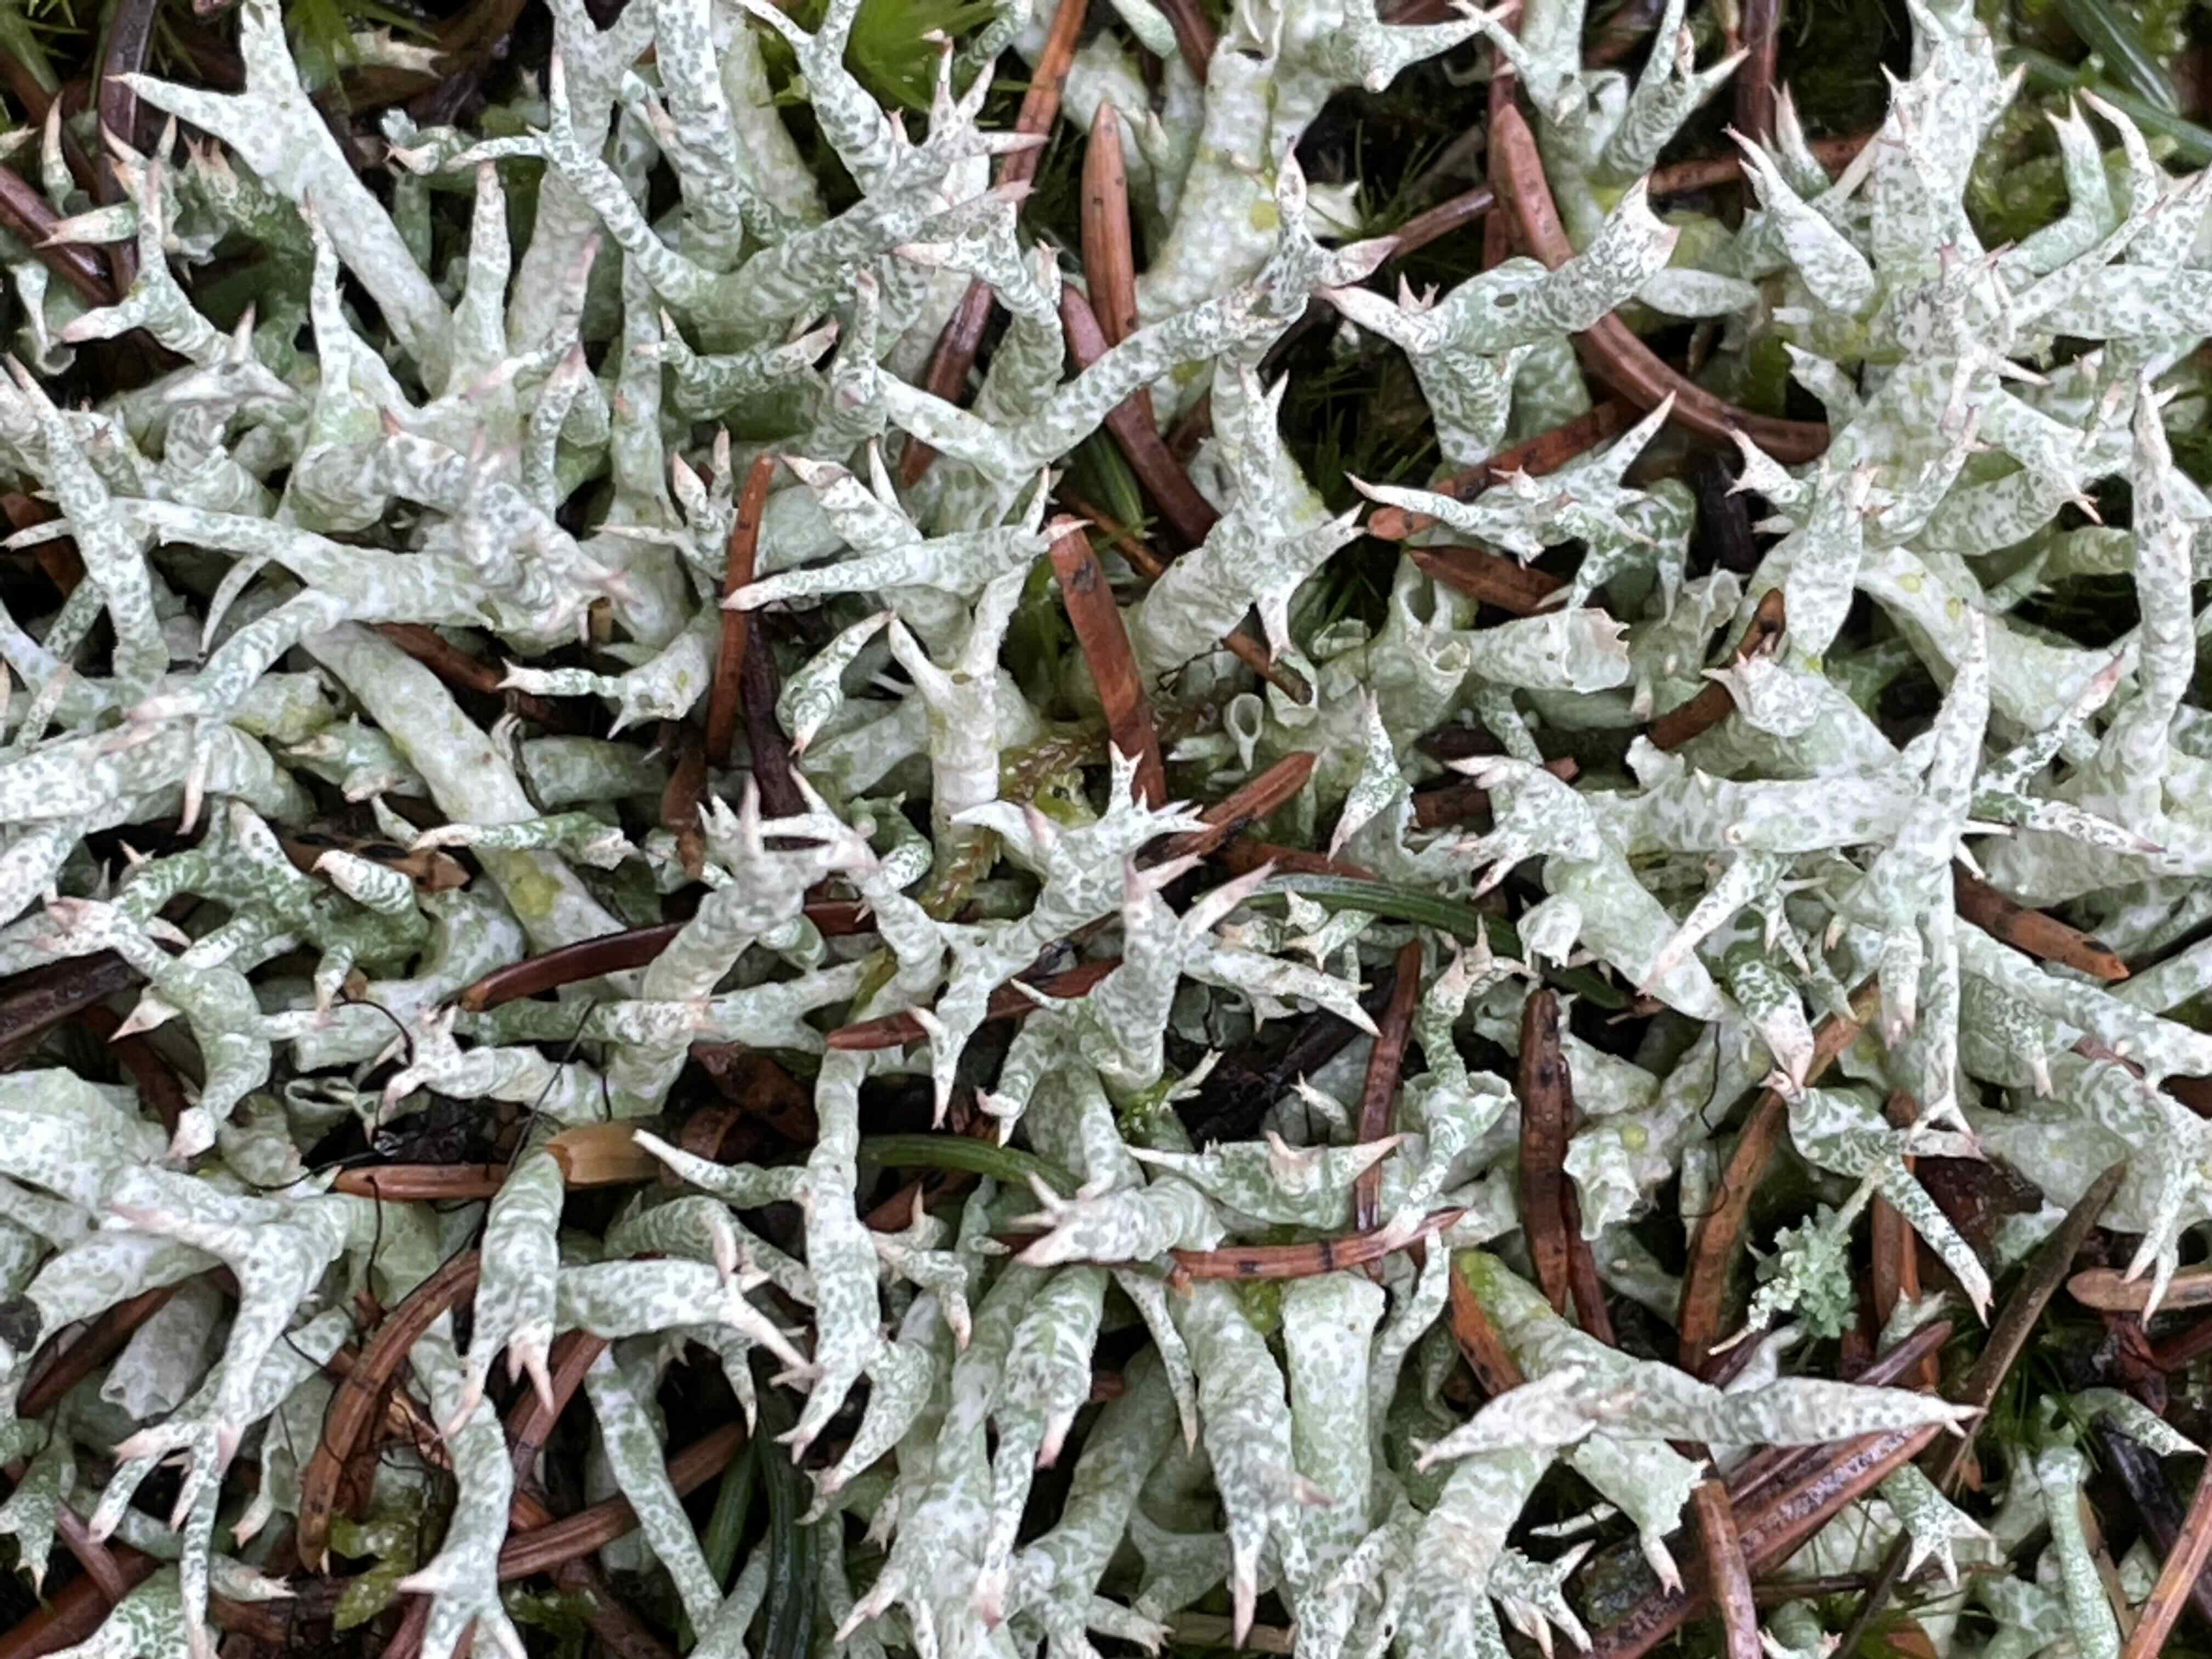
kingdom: Fungi
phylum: Ascomycota
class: Lecanoromycetes
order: Lecanorales
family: Cladoniaceae
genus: Cladonia
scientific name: Cladonia uncialis
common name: pigget bægerlav
